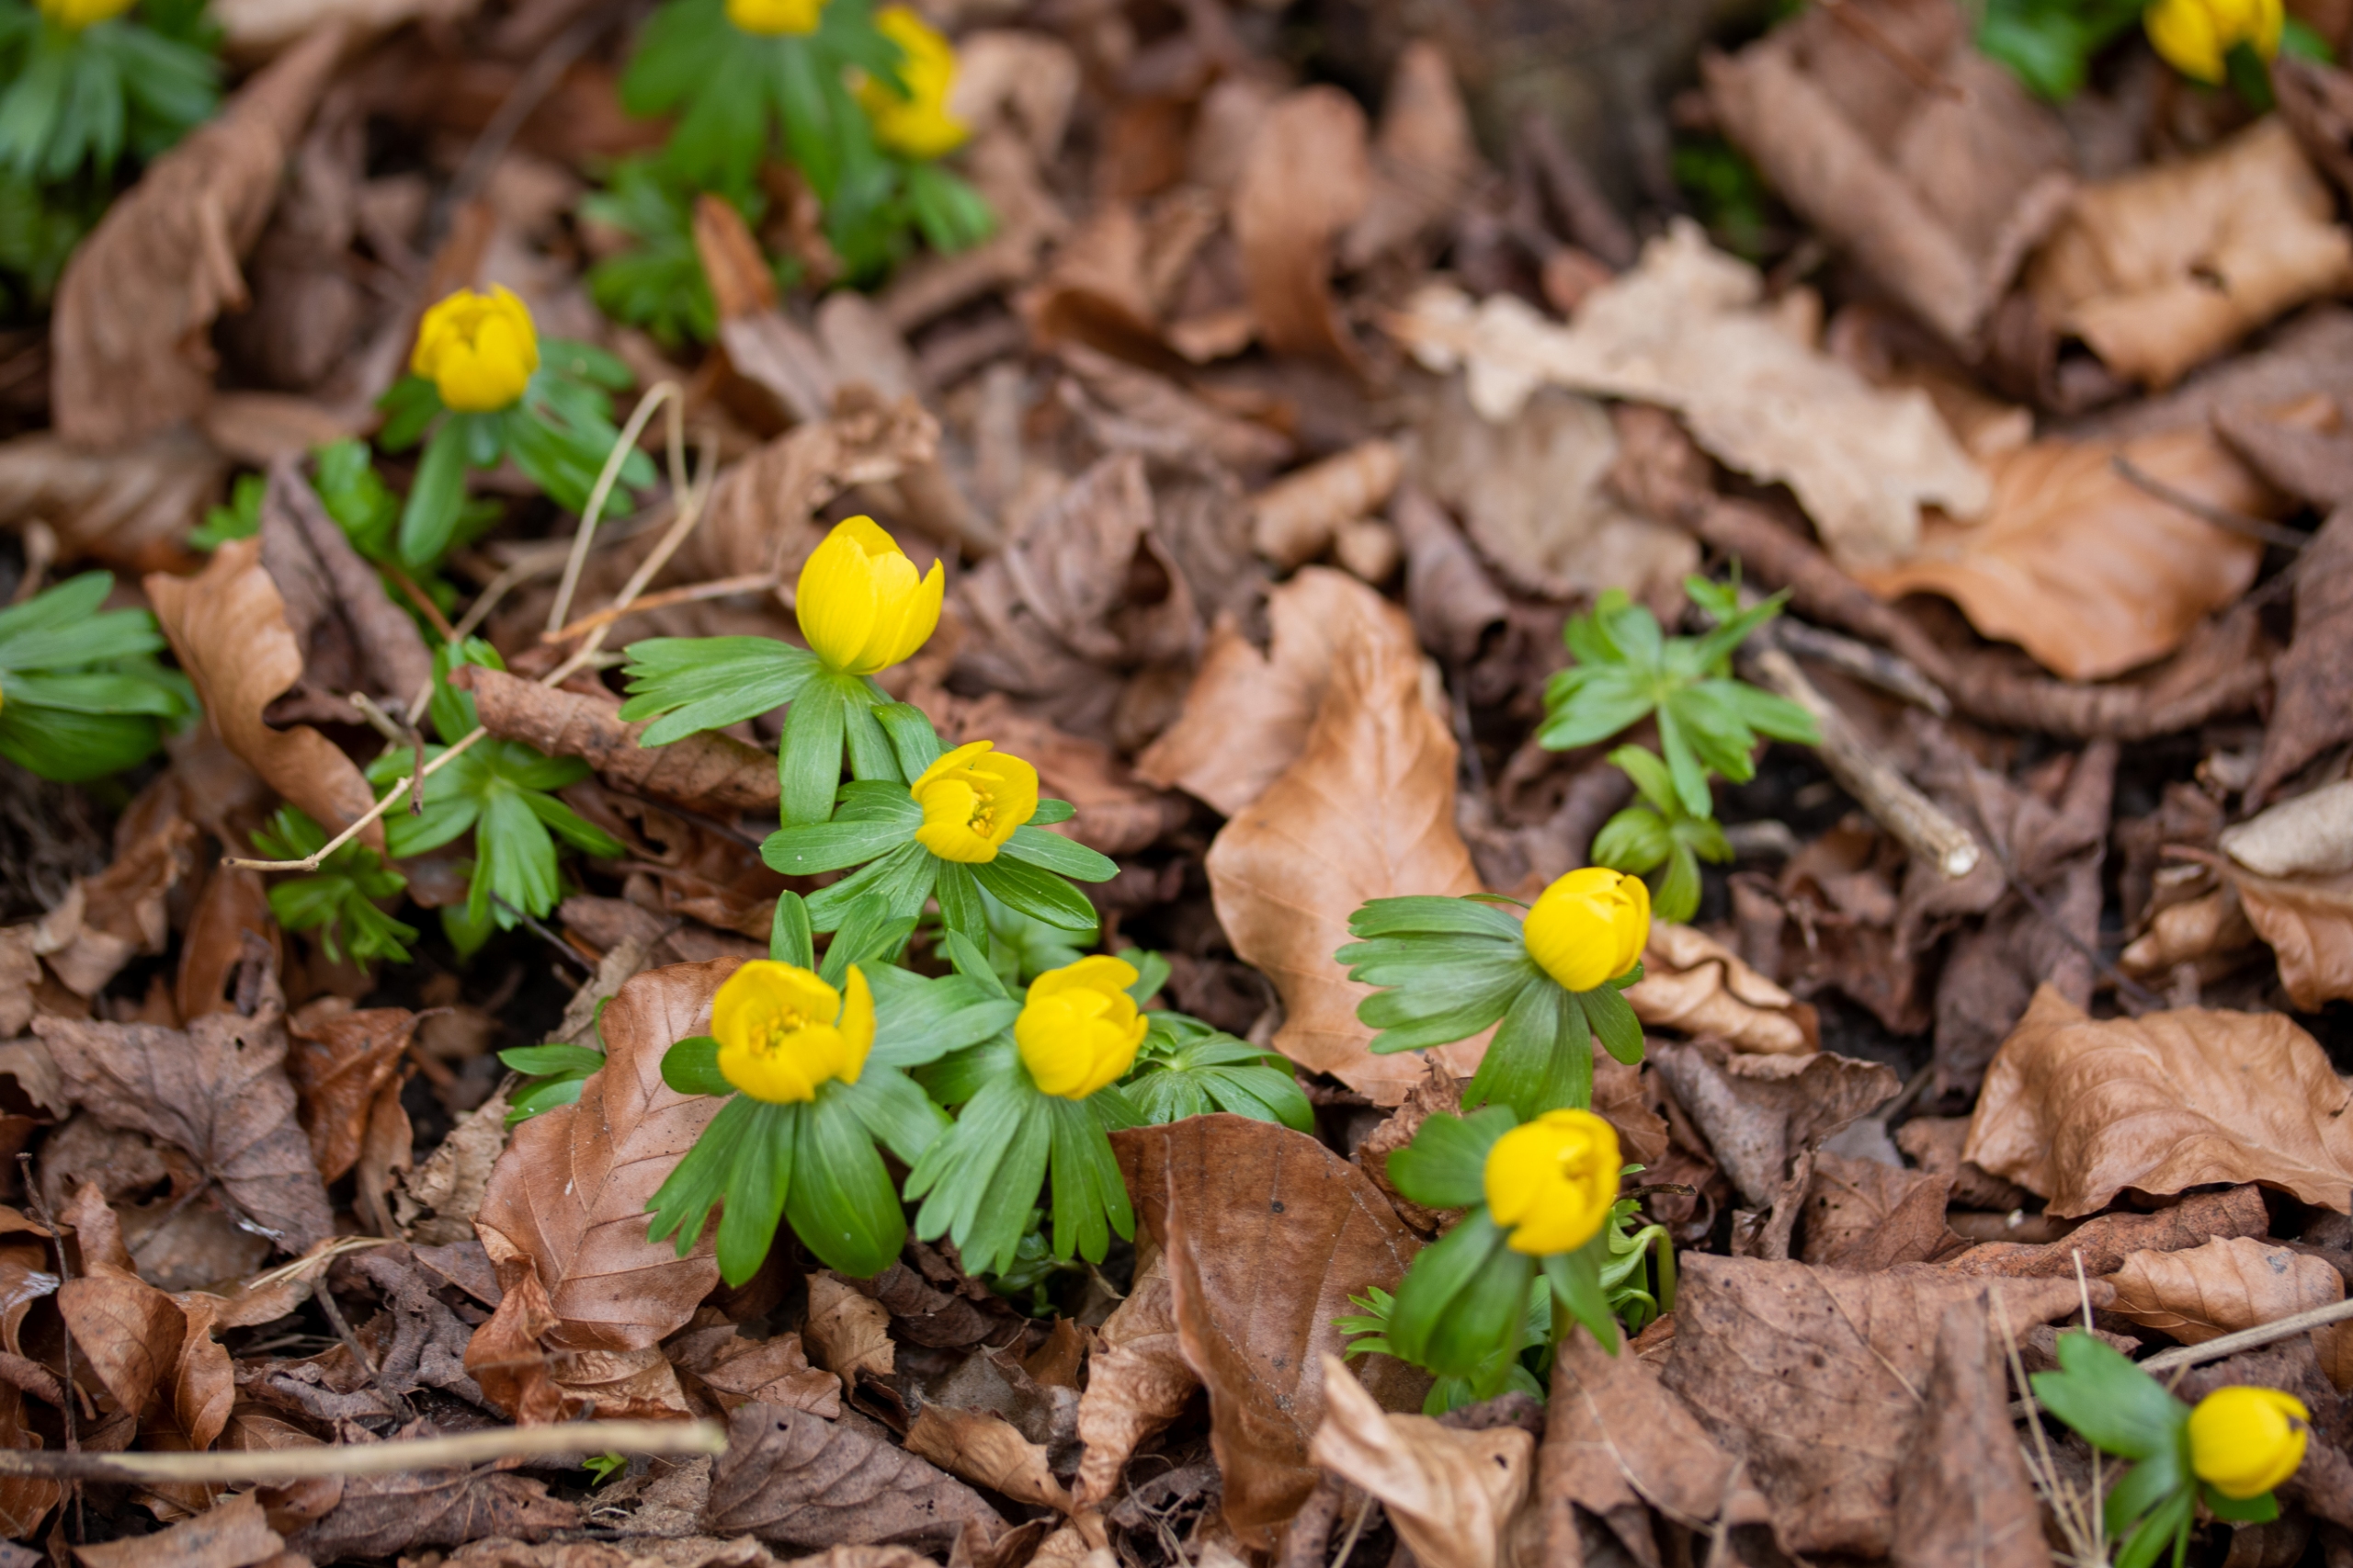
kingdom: Plantae
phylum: Tracheophyta
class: Magnoliopsida
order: Ranunculales
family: Ranunculaceae
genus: Eranthis
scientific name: Eranthis hyemalis
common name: Erantis
